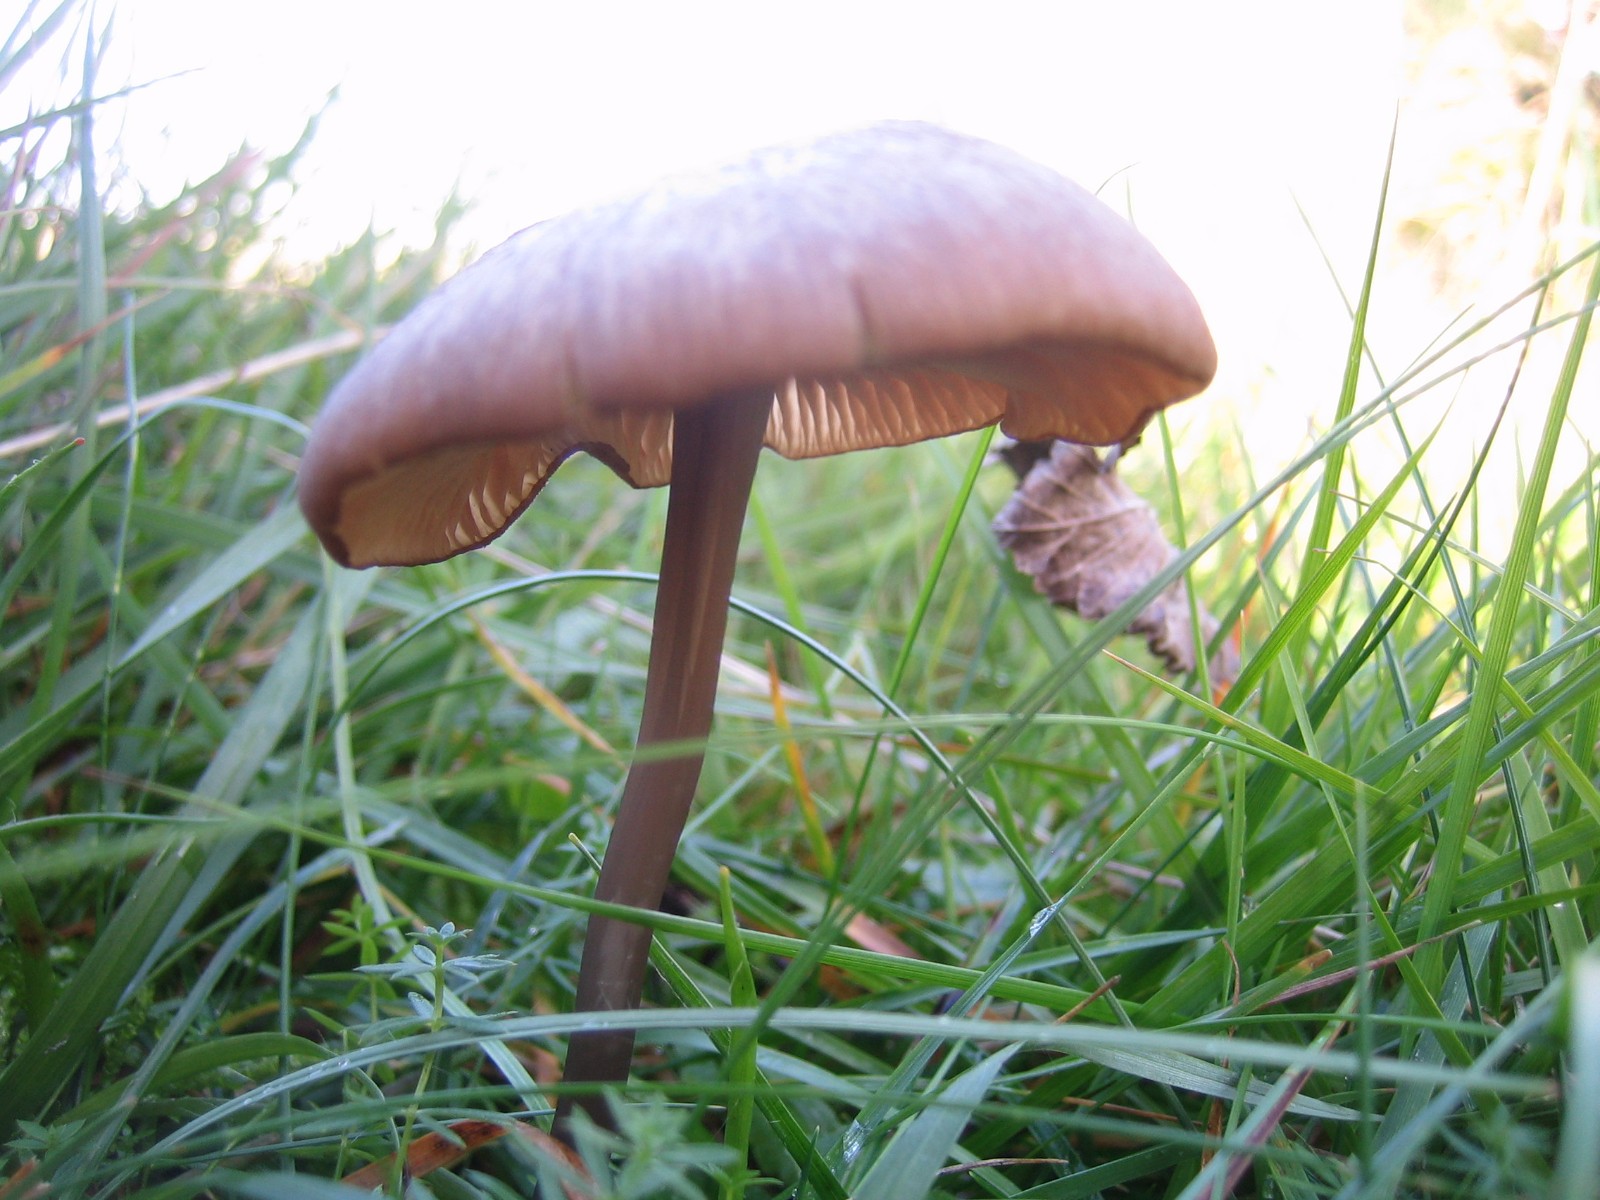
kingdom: Fungi
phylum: Basidiomycota
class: Agaricomycetes
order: Agaricales
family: Entolomataceae
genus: Entoloma
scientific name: Entoloma
